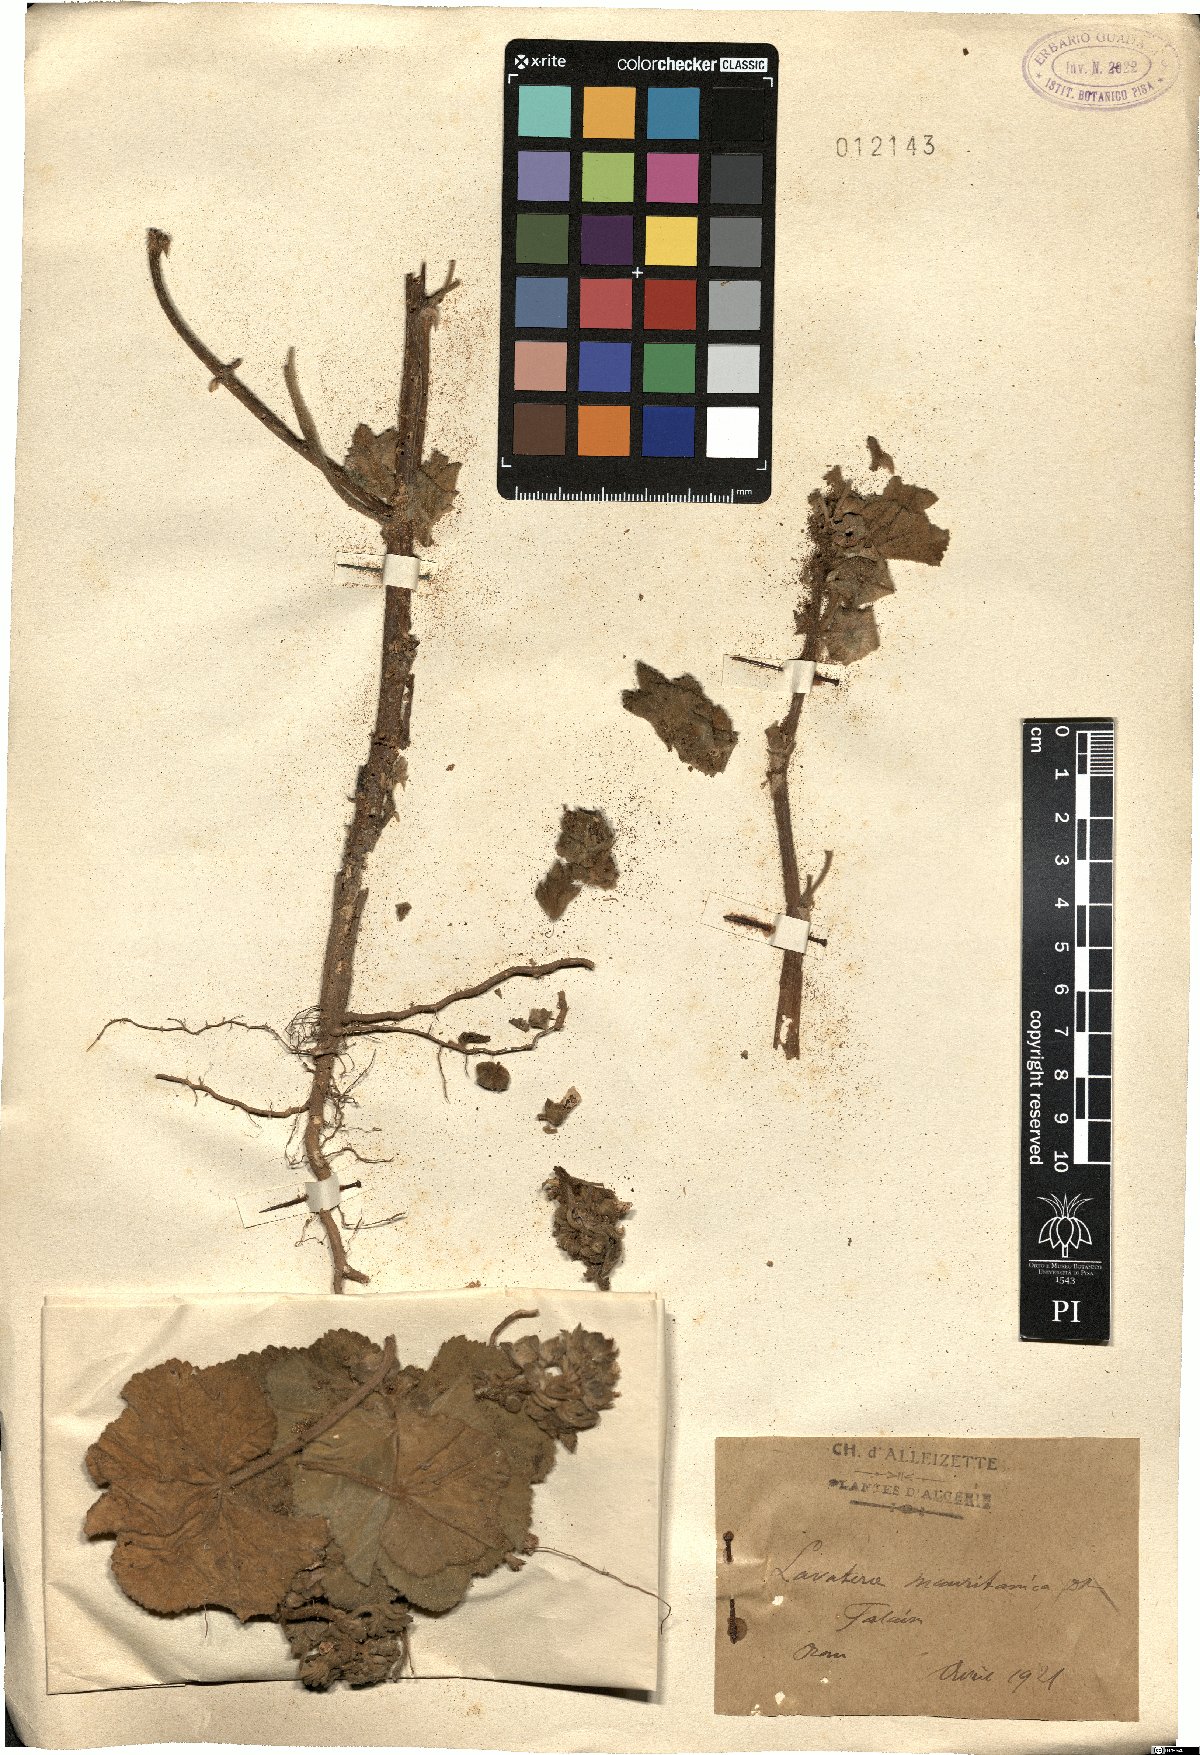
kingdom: Plantae
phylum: Tracheophyta
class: Magnoliopsida
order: Malvales
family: Malvaceae
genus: Malva
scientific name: Malva durieui
